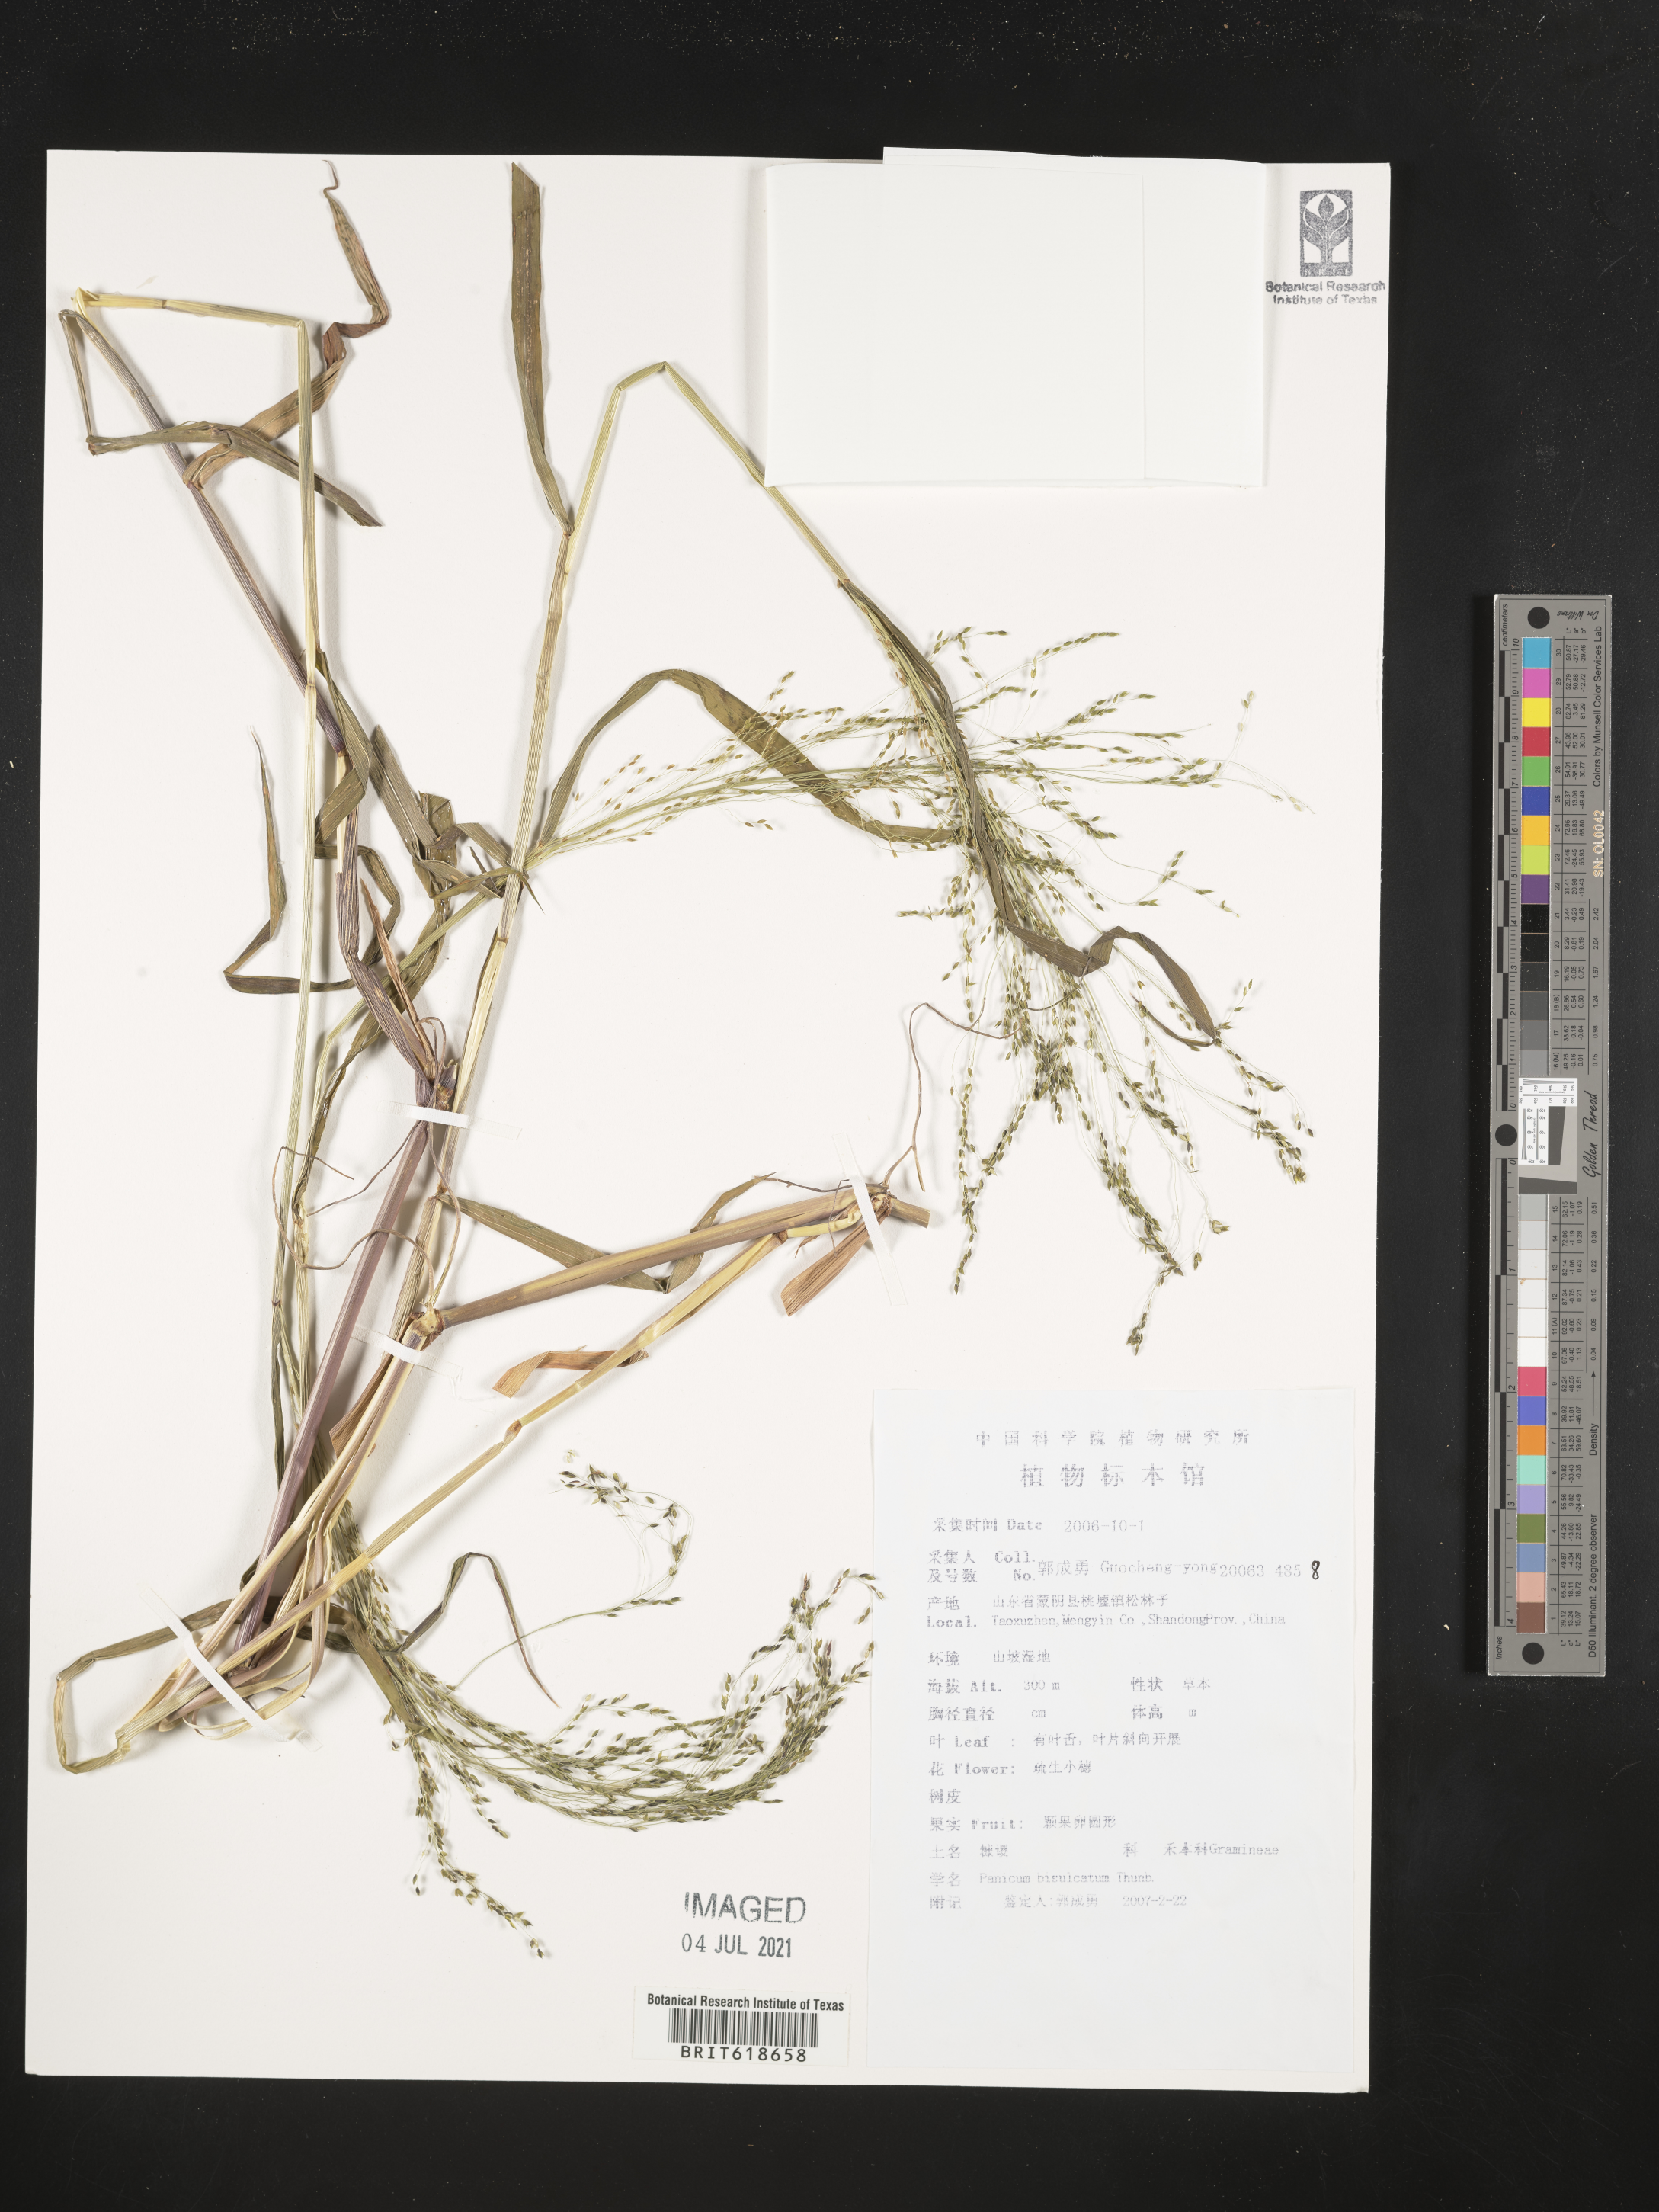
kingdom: Plantae
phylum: Tracheophyta
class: Liliopsida
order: Poales
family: Poaceae
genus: Panicum
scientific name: Panicum bisulcatum
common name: Japanese panicgrass
